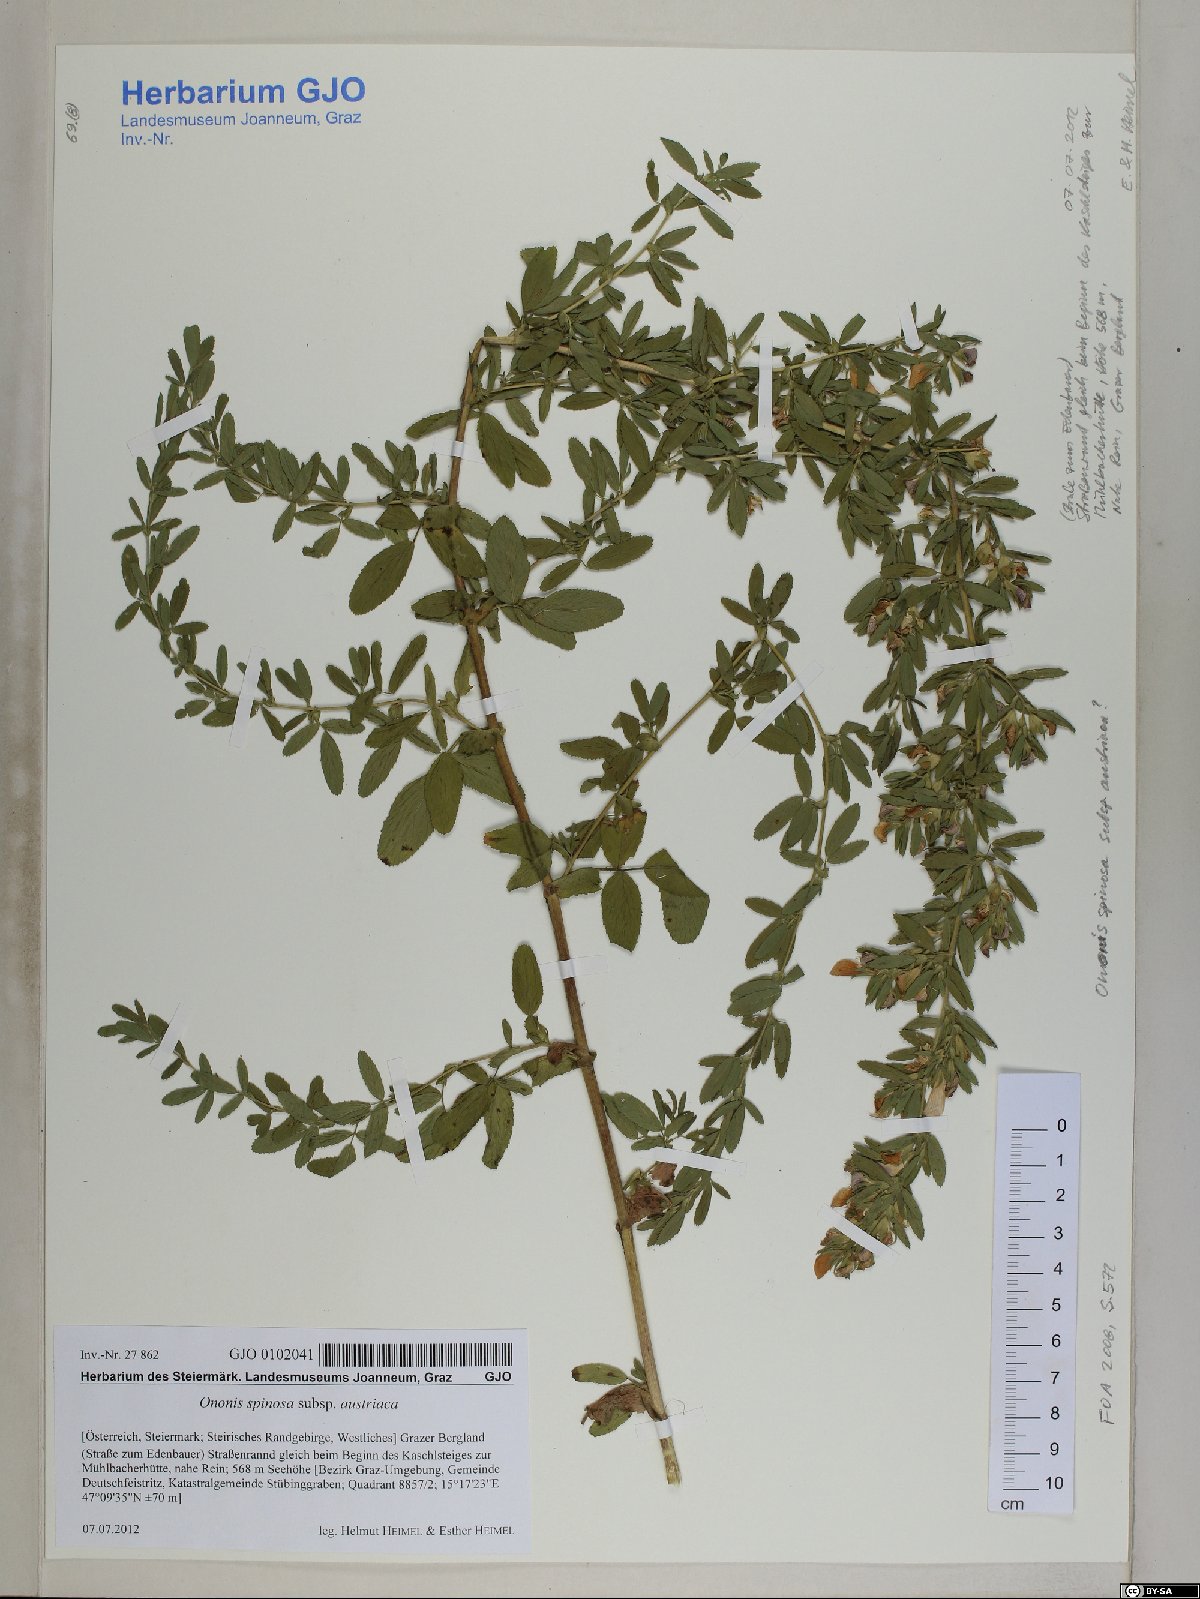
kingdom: Plantae
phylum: Tracheophyta
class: Magnoliopsida
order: Fabales
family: Fabaceae
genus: Ononis
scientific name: Ononis spinosa
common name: Spiny restharrow
